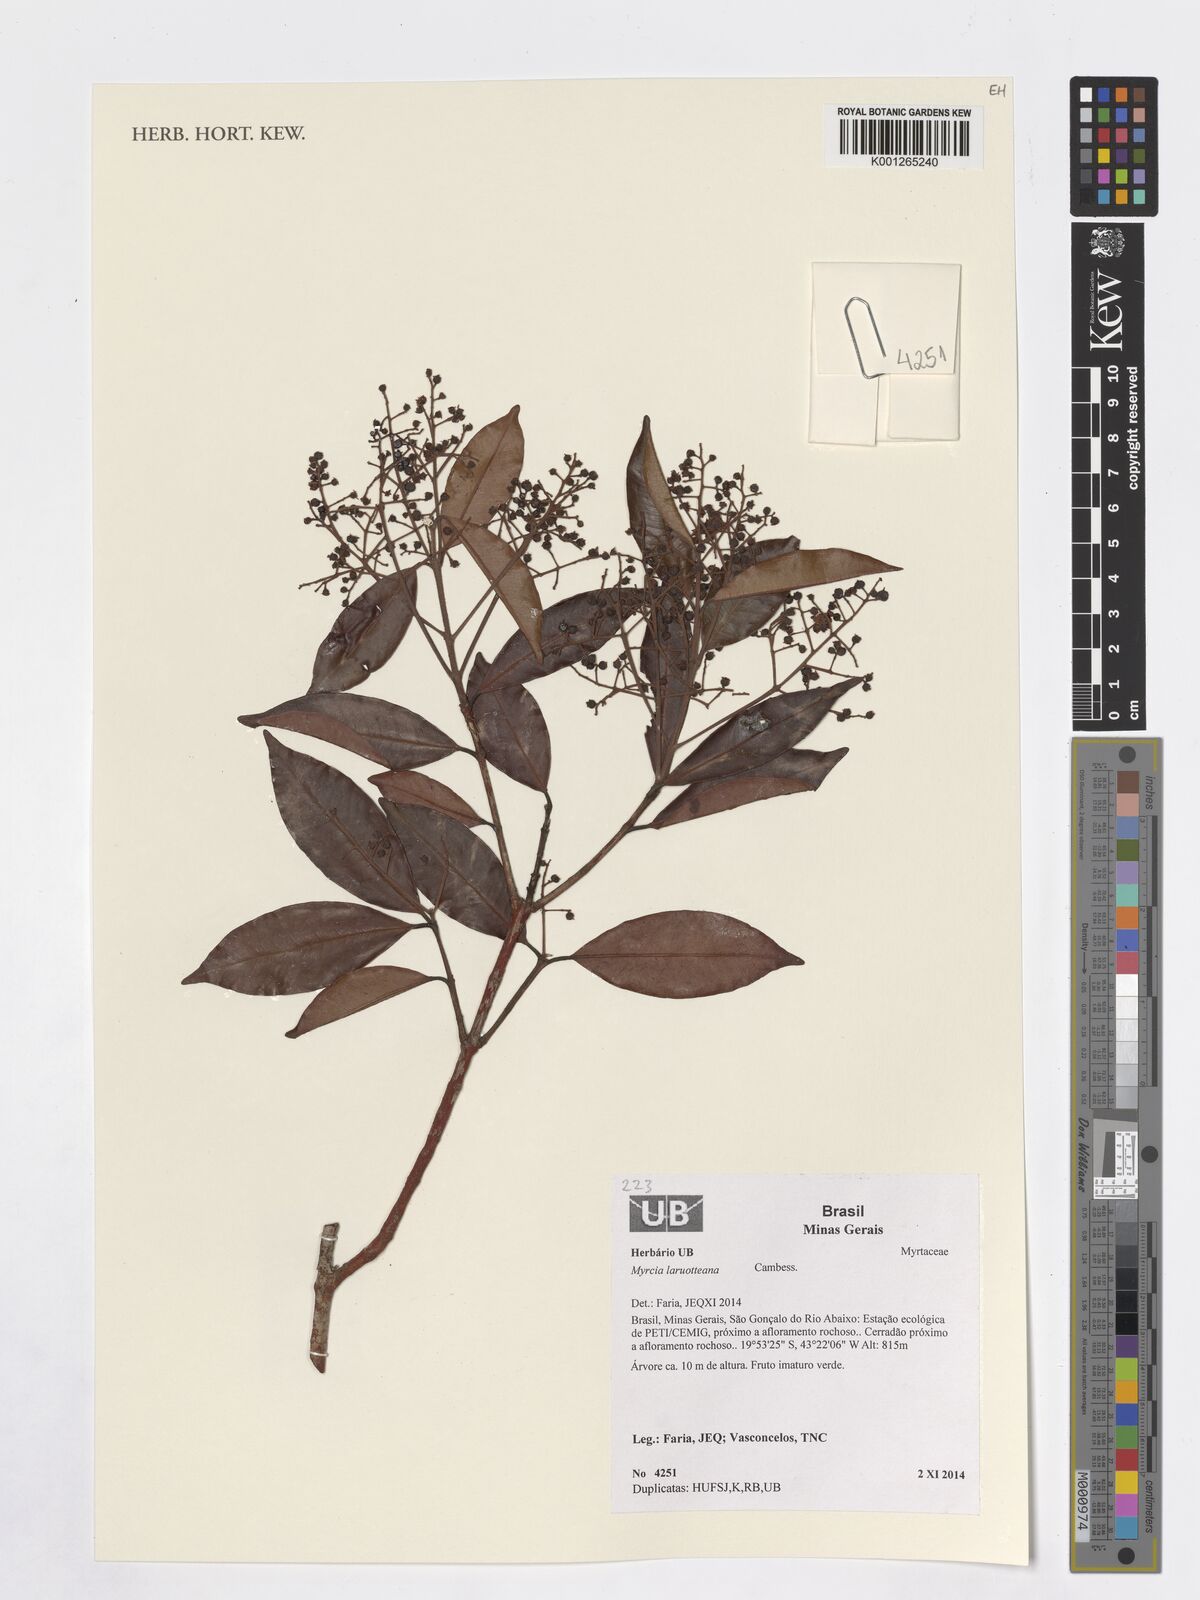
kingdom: Plantae
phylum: Tracheophyta
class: Magnoliopsida
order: Myrtales
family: Myrtaceae
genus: Myrcia
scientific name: Myrcia laruotteana
